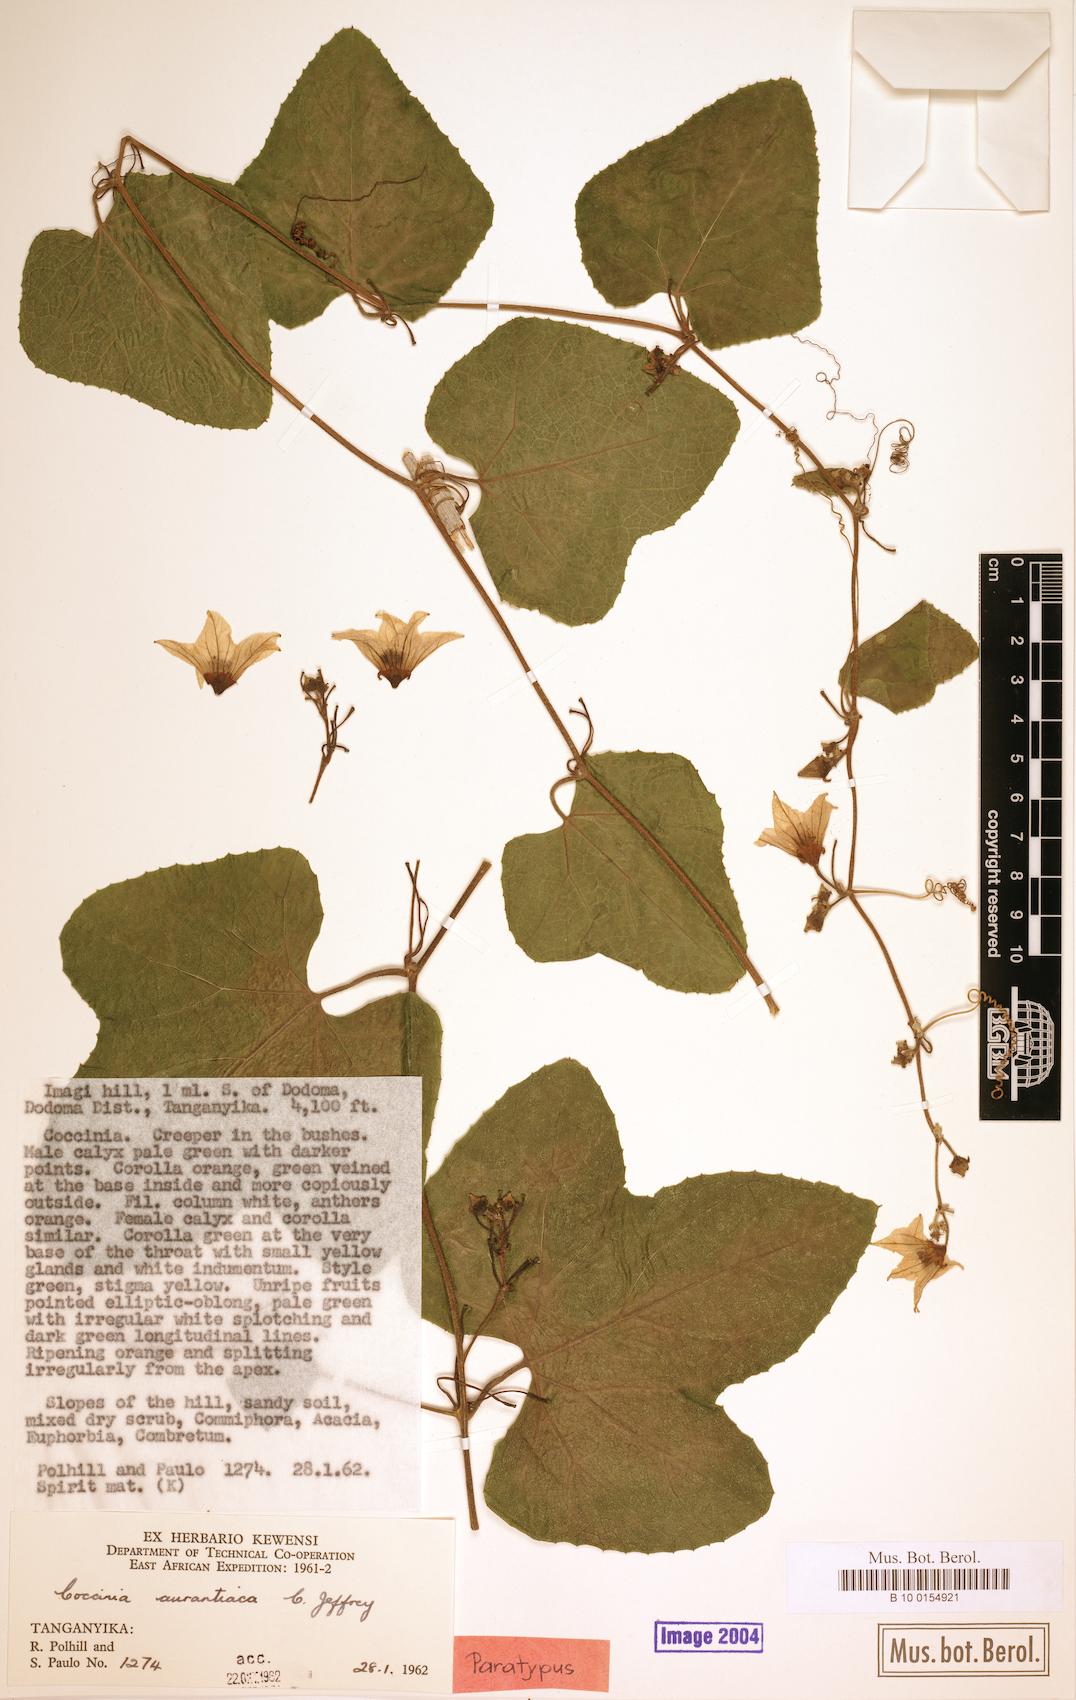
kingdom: Plantae
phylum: Tracheophyta
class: Magnoliopsida
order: Cucurbitales
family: Cucurbitaceae
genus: Coccinia
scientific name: Coccinia adoensis
